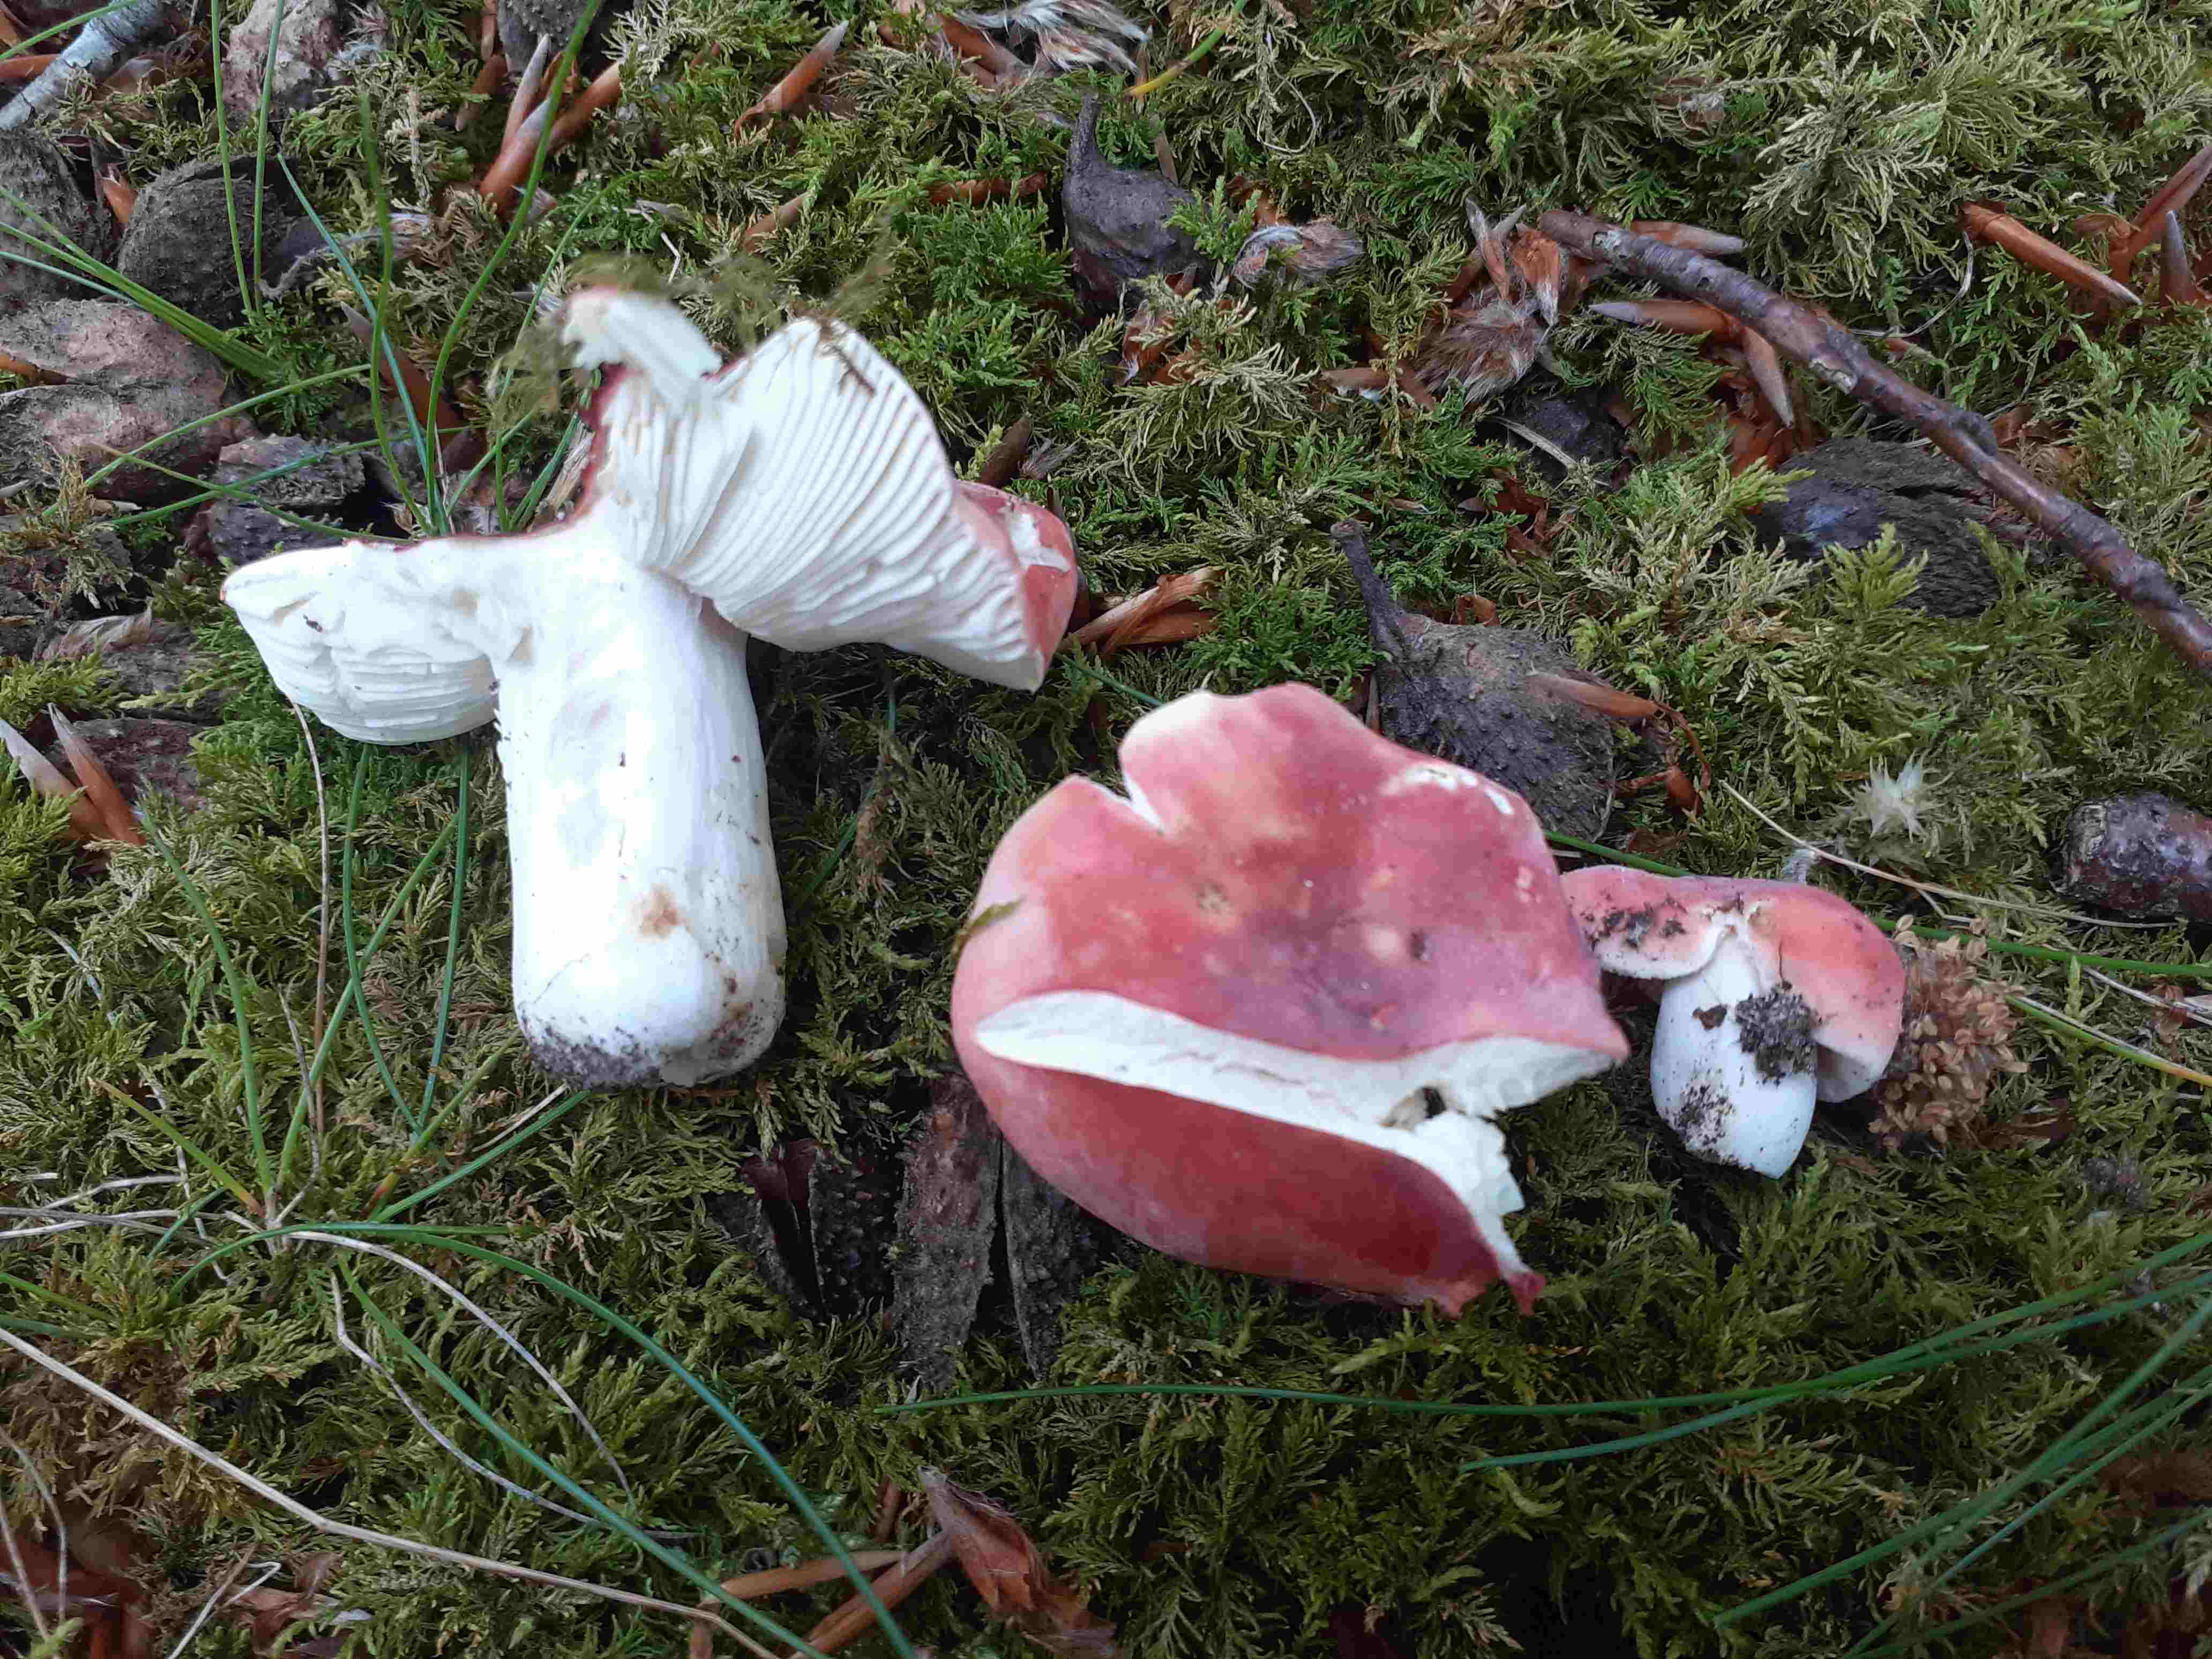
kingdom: Fungi
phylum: Basidiomycota
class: Agaricomycetes
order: Russulales
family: Russulaceae
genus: Russula
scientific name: Russula emetica
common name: matrød skørhat
